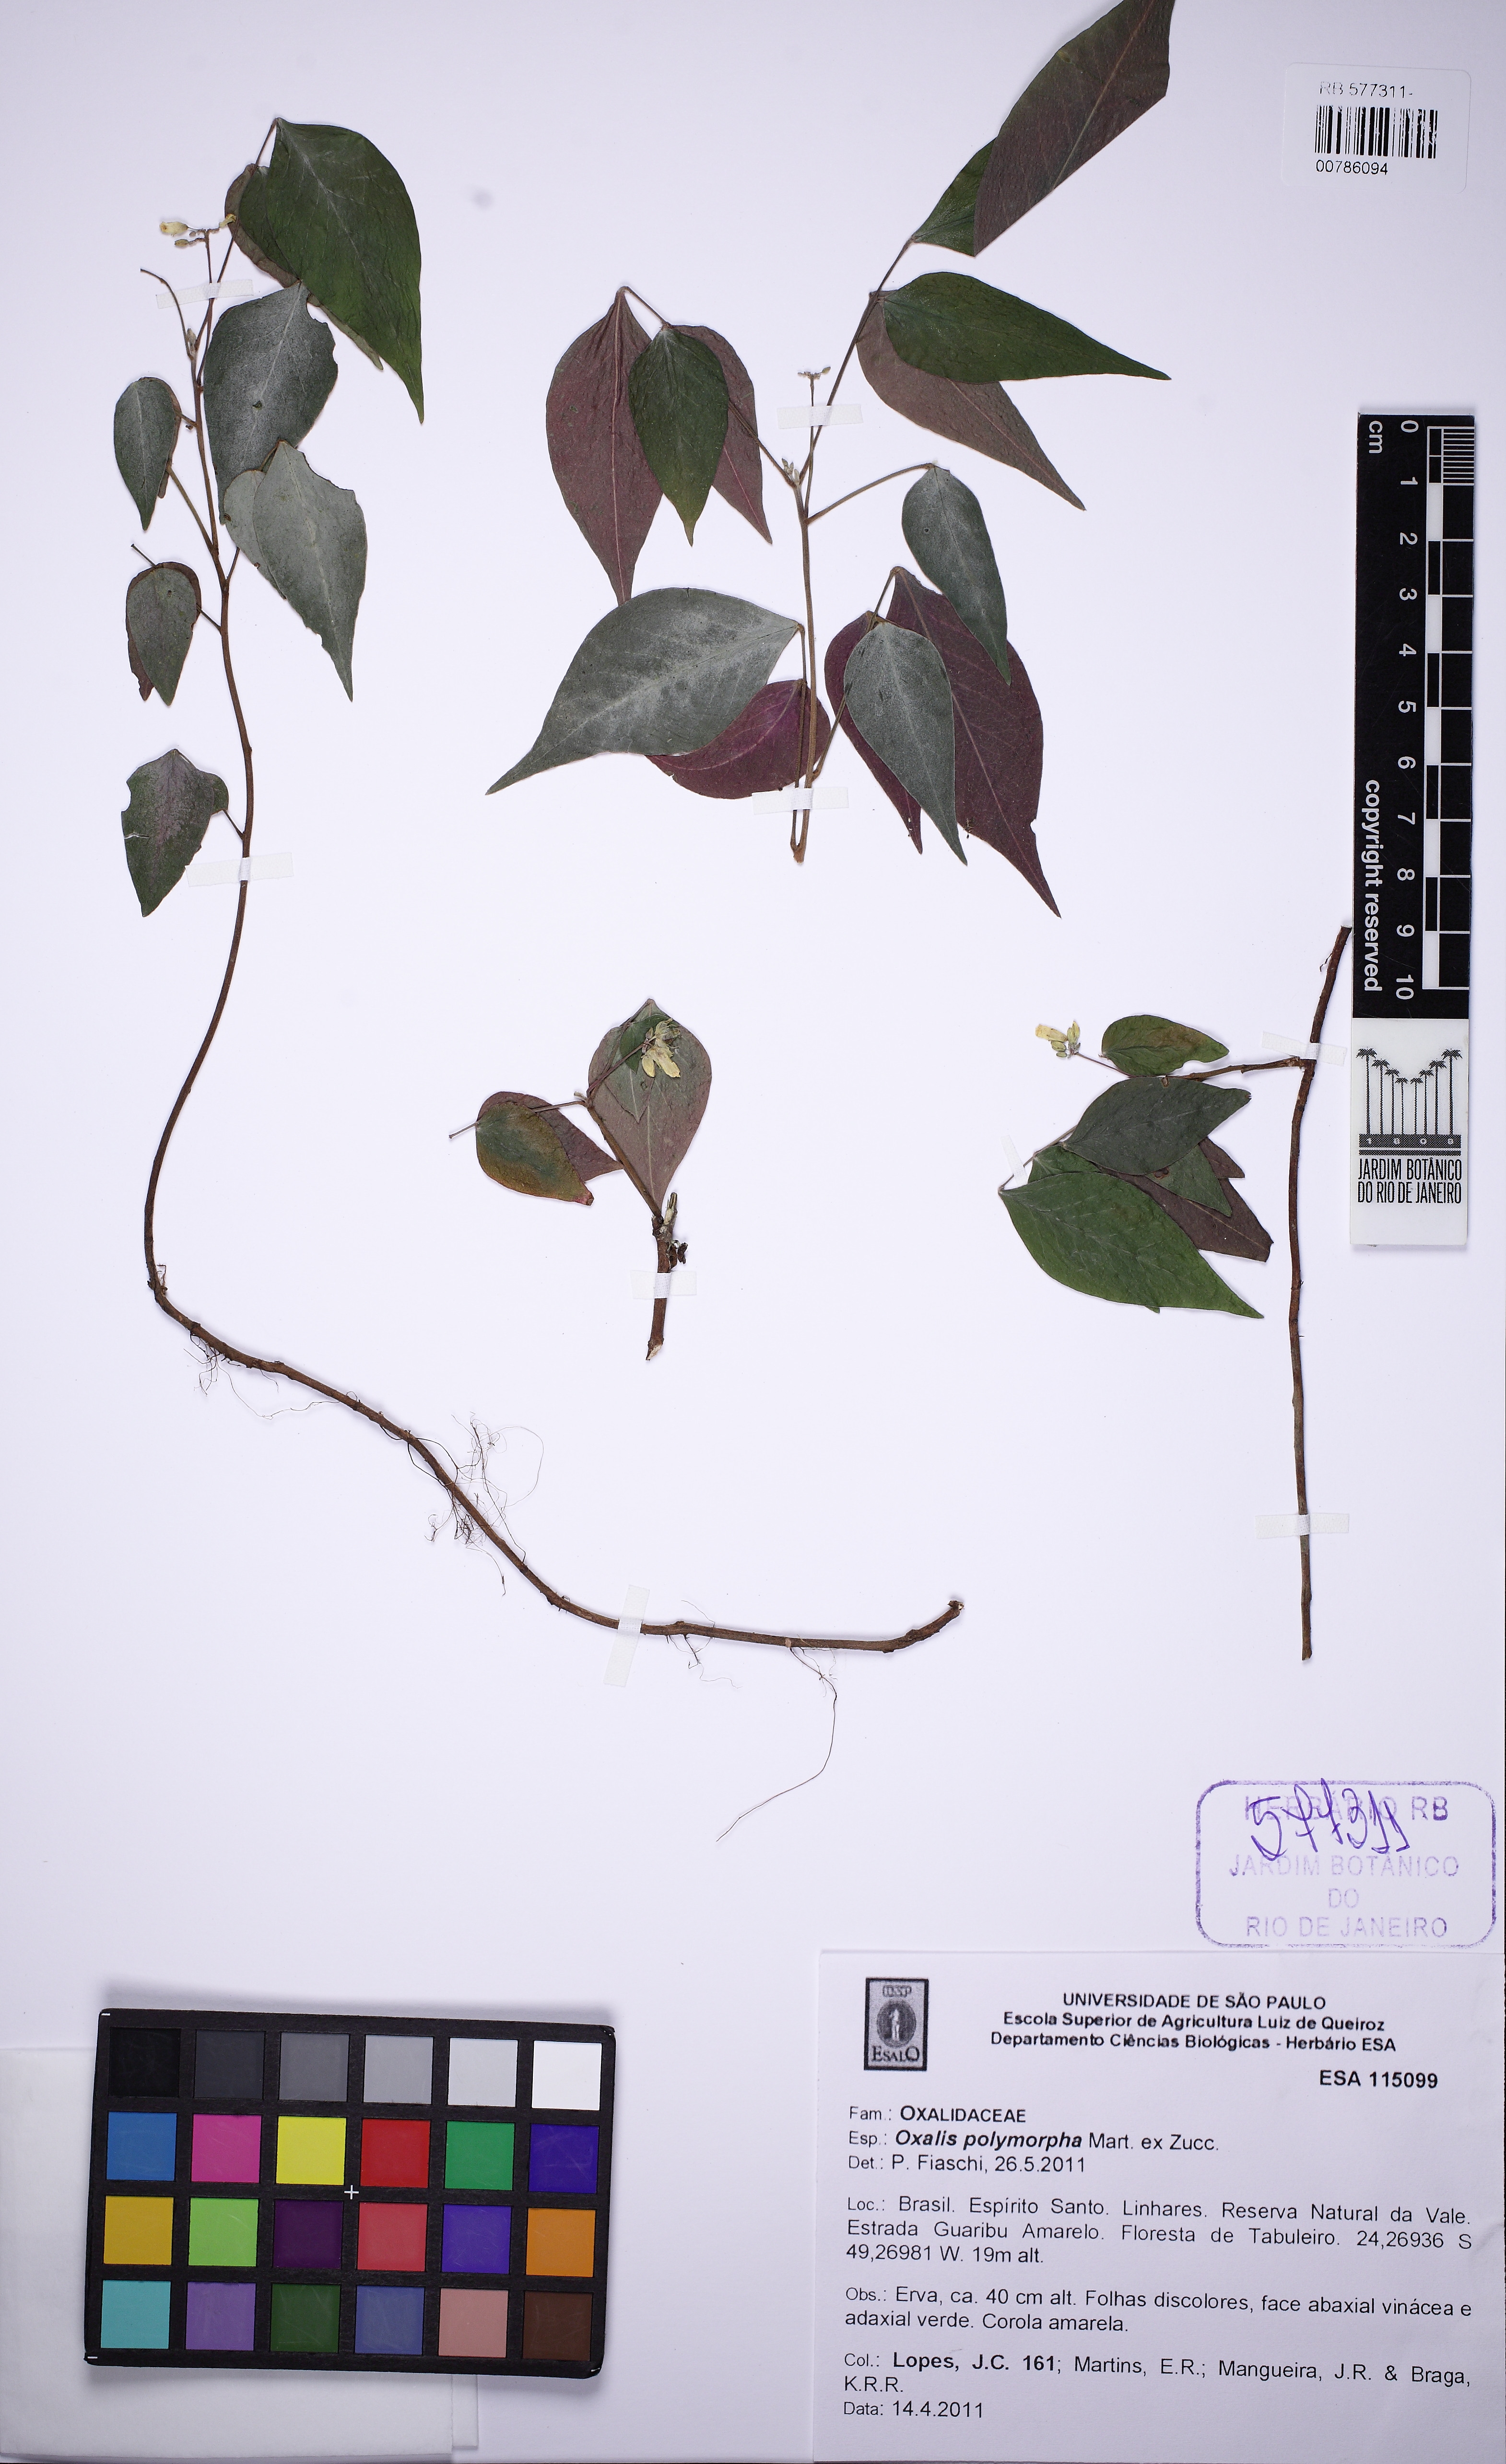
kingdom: Plantae
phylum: Tracheophyta
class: Magnoliopsida
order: Oxalidales
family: Oxalidaceae
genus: Oxalis
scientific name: Oxalis polymorpha
